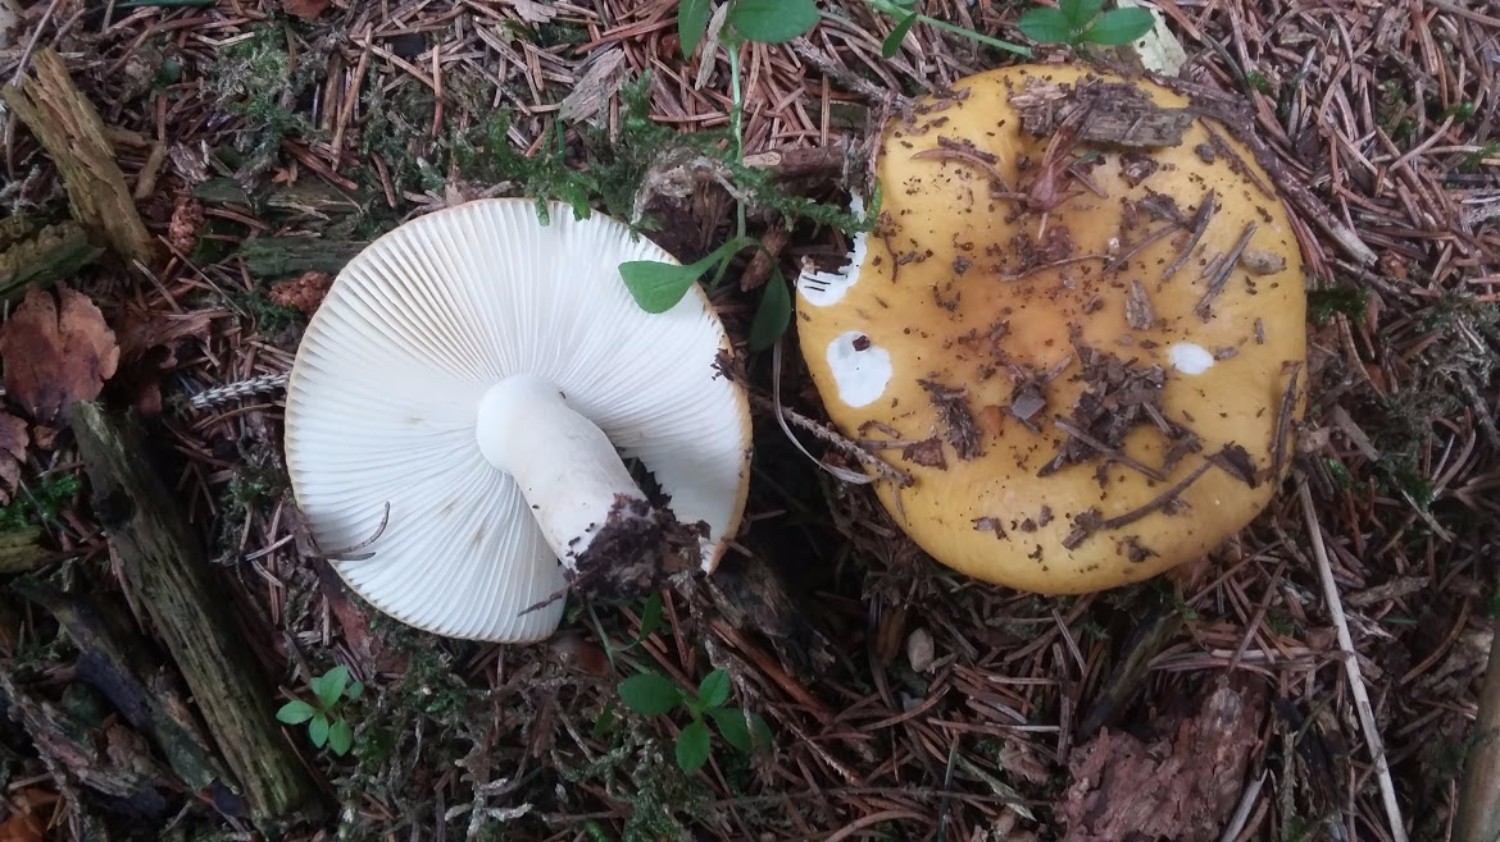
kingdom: Fungi
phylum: Basidiomycota
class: Agaricomycetes
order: Russulales
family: Russulaceae
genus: Russula
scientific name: Russula ochroleuca
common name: okkergul skørhat
